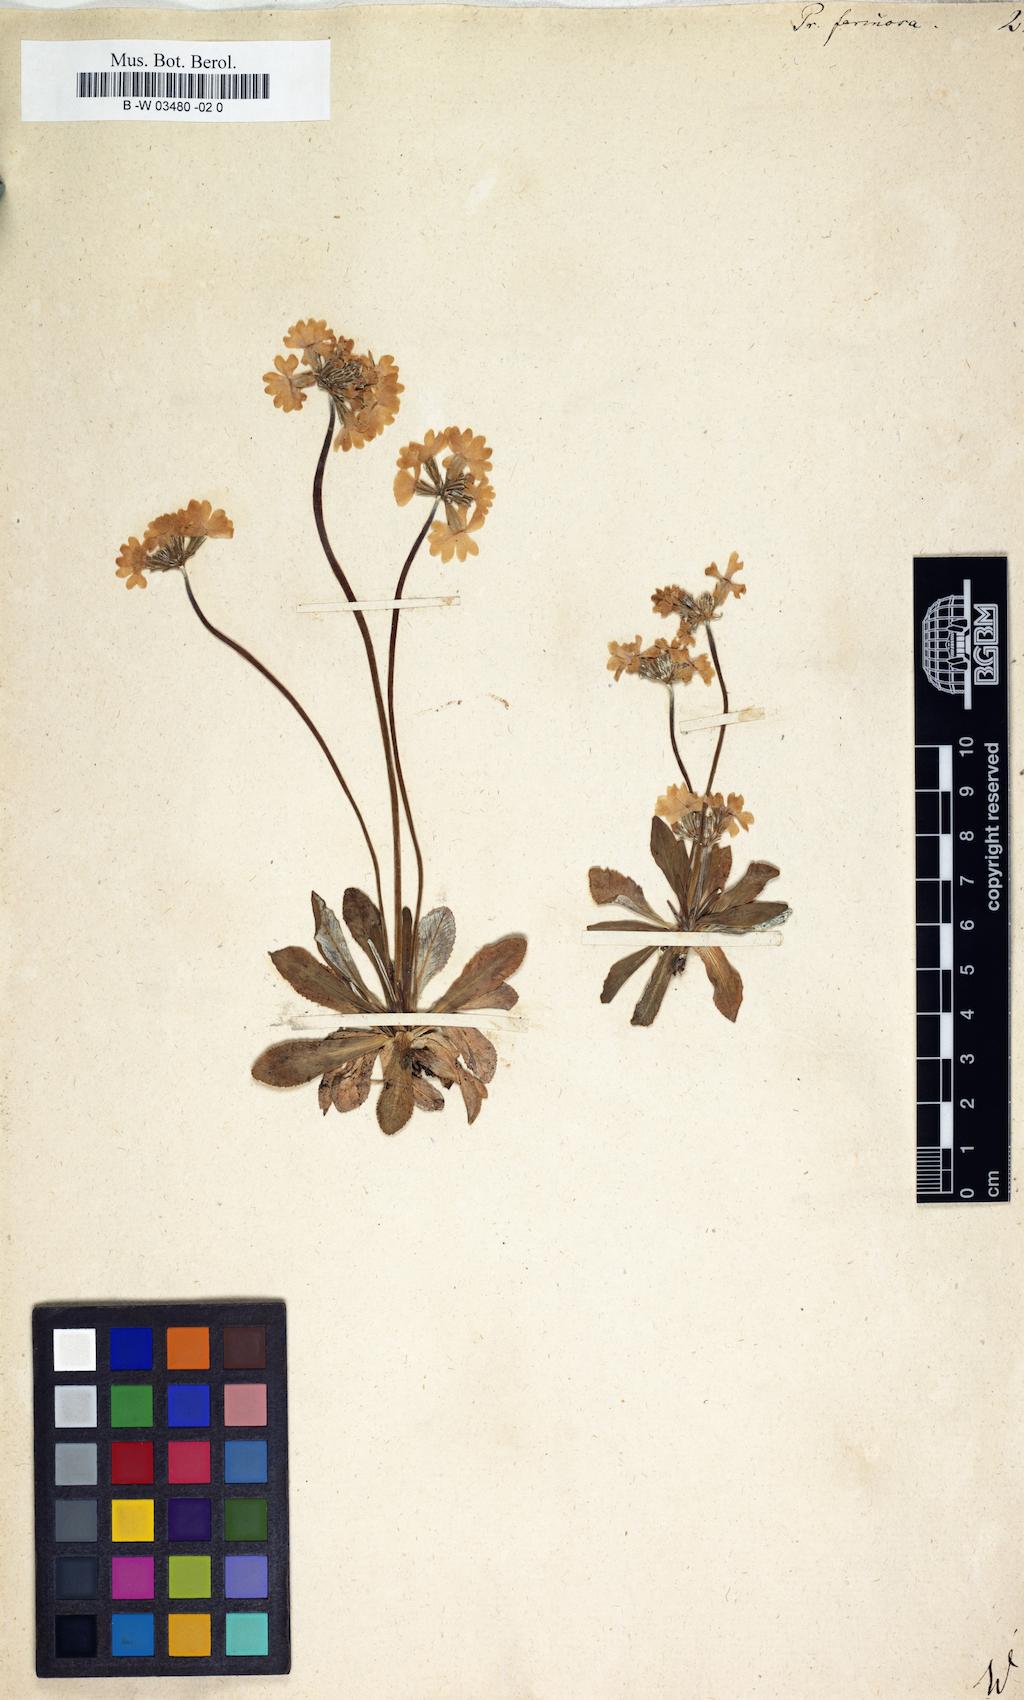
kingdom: Plantae
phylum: Tracheophyta
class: Magnoliopsida
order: Ericales
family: Primulaceae
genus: Primula
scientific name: Primula farinosa
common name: Bird's-eye primrose
